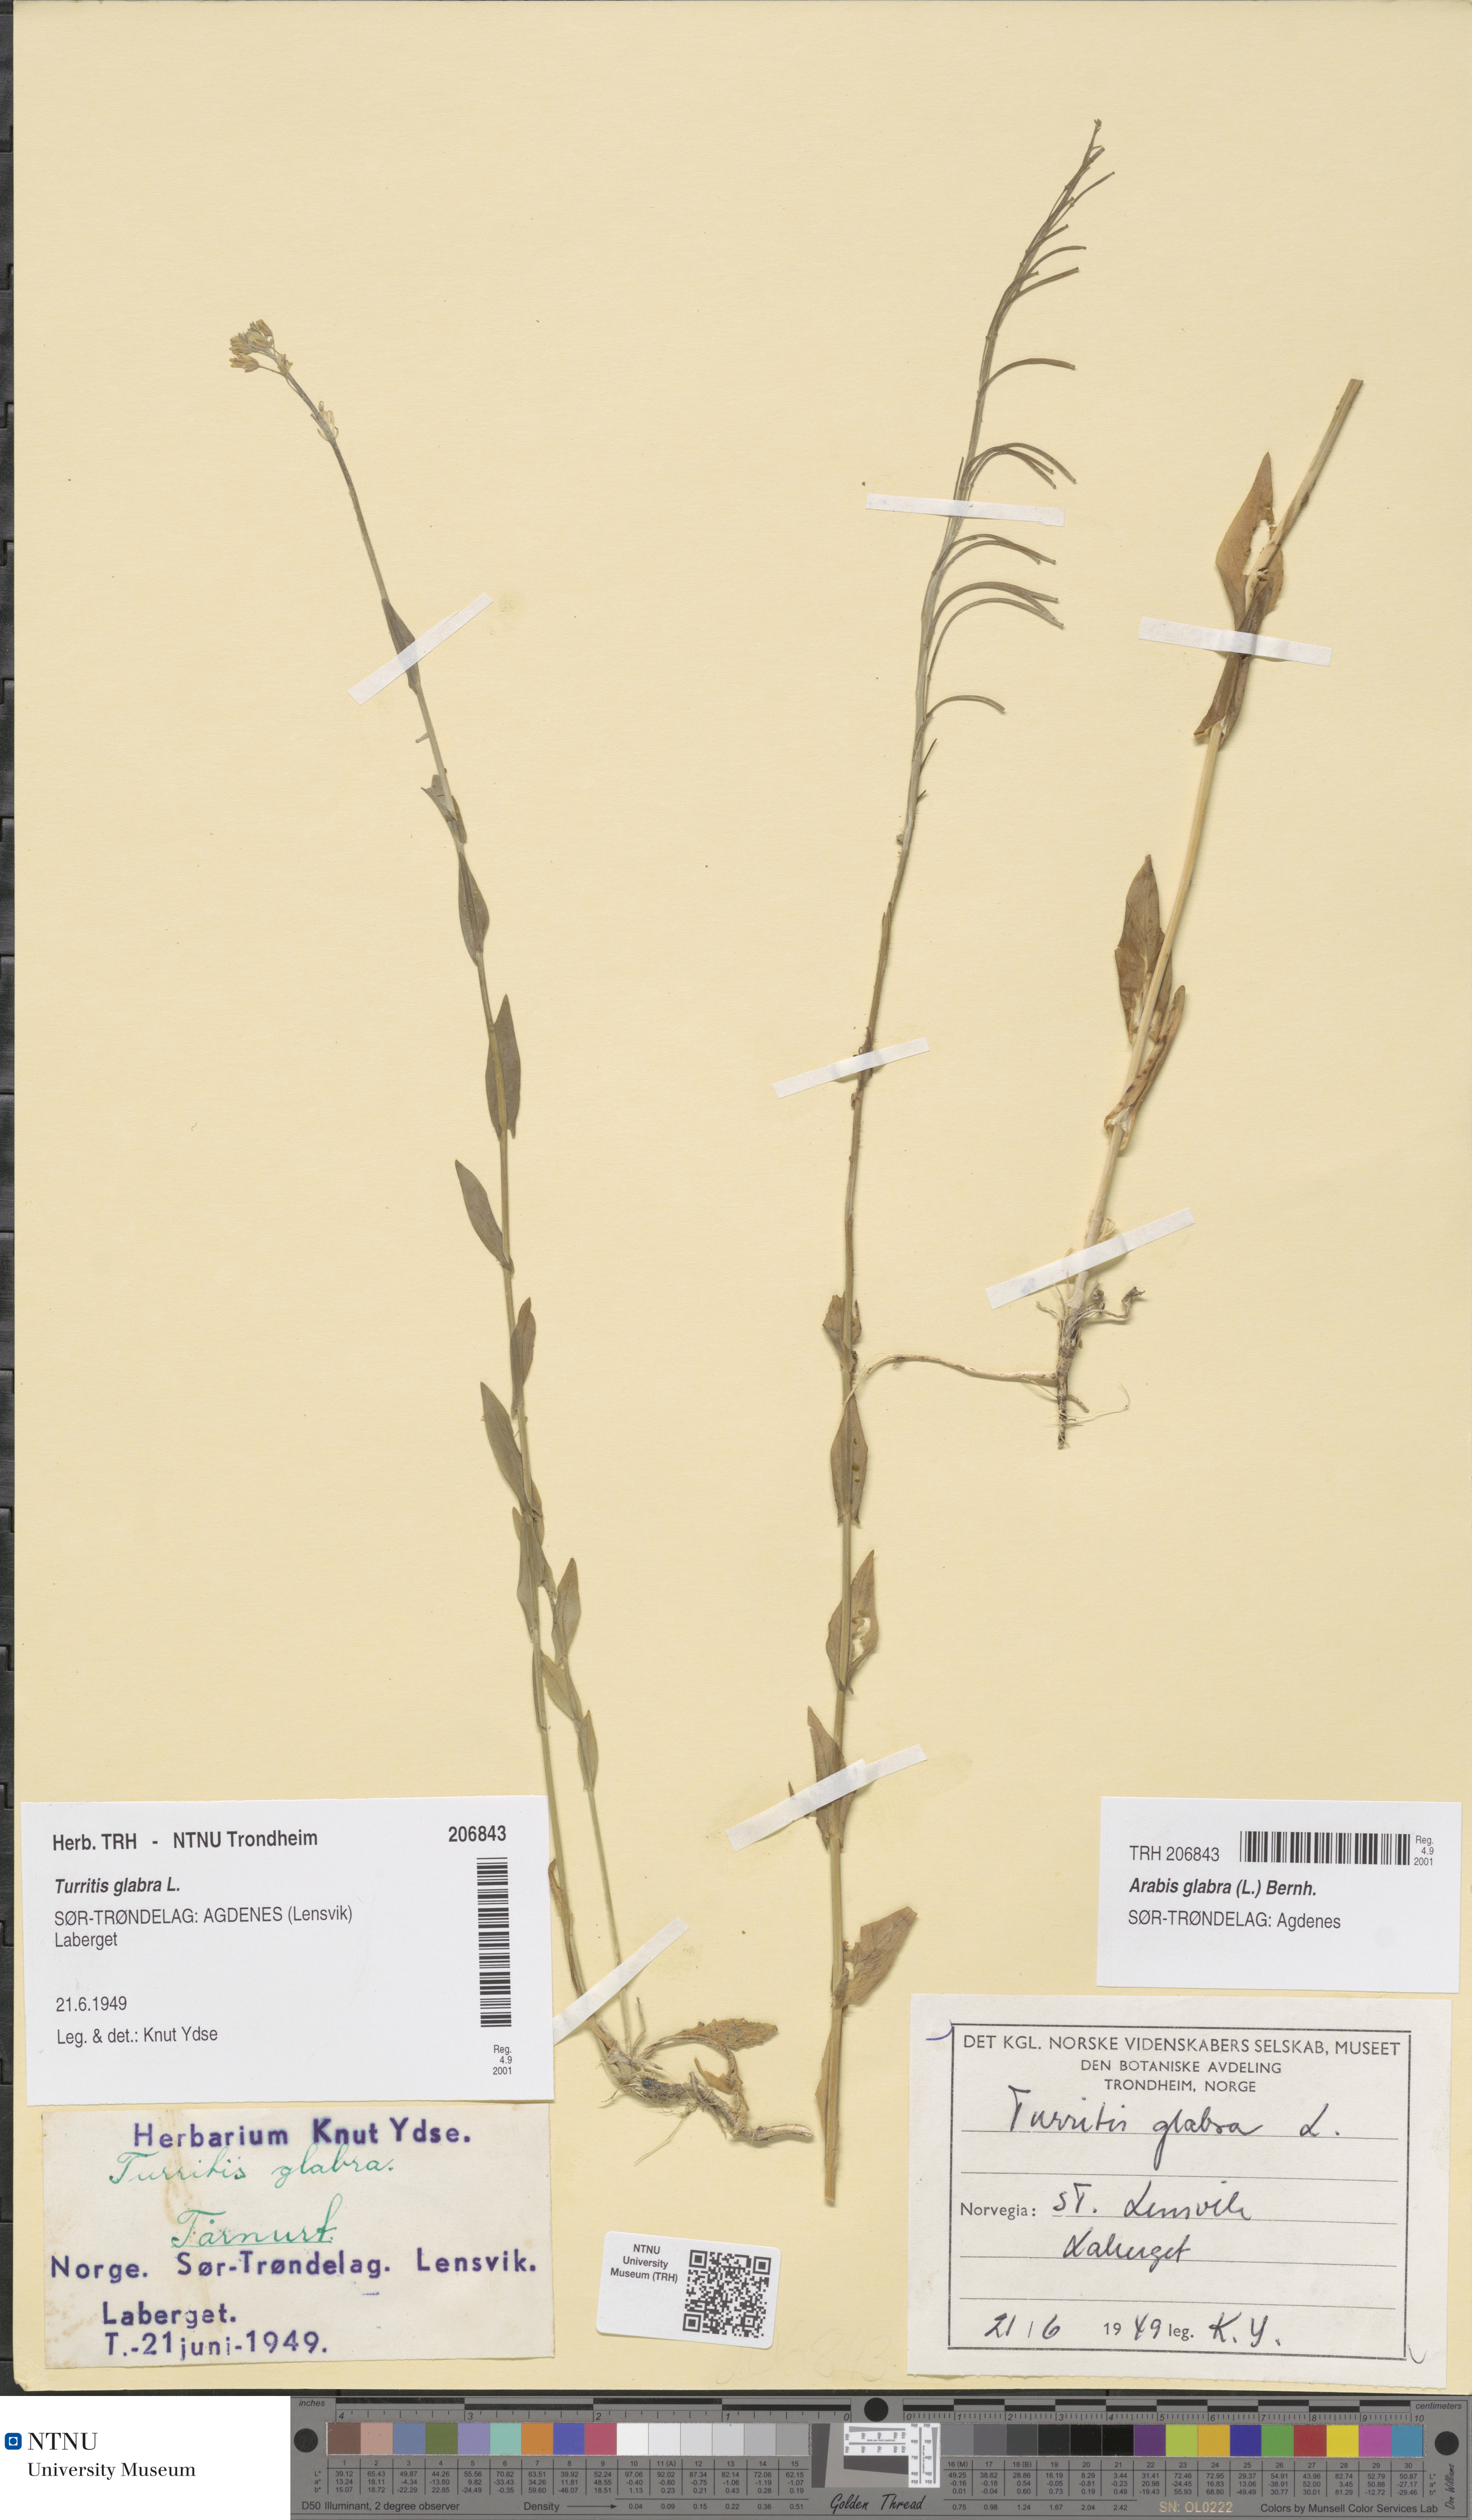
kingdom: Plantae
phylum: Tracheophyta
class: Magnoliopsida
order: Brassicales
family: Brassicaceae
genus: Turritis
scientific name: Turritis glabra
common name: Tower rockcress
